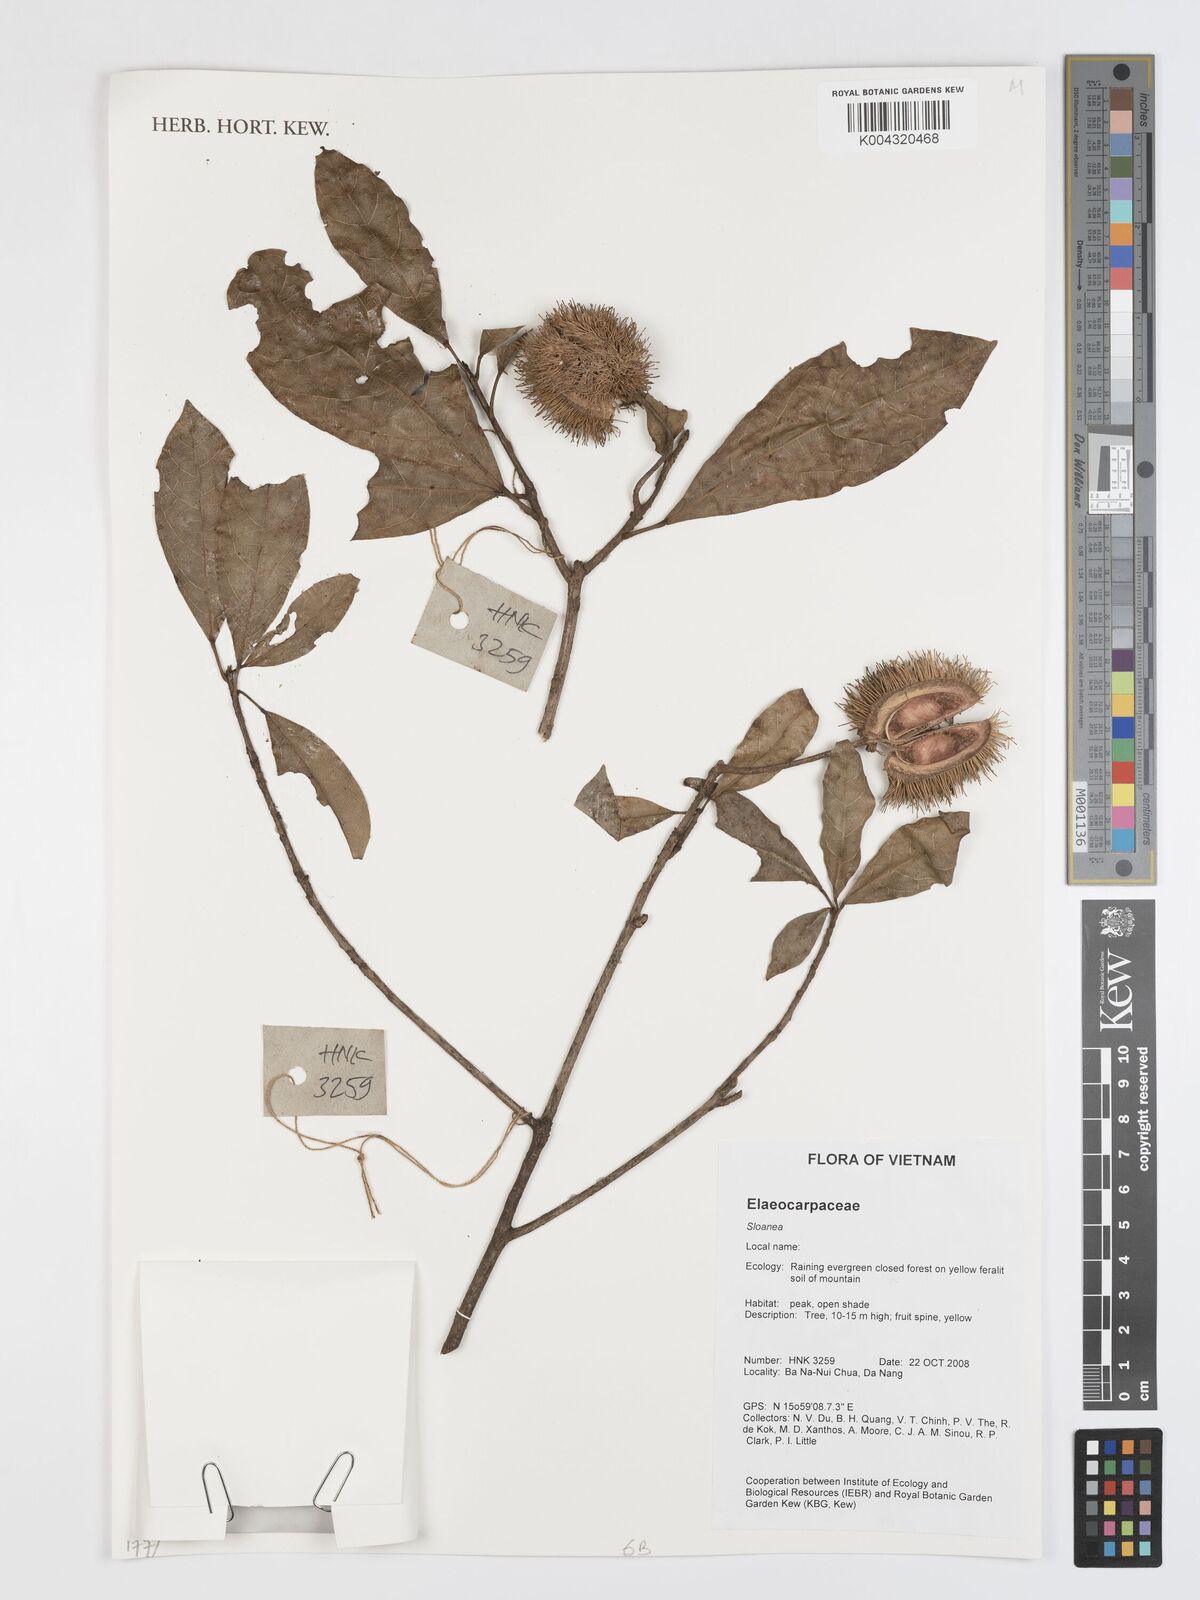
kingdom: Plantae
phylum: Tracheophyta
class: Magnoliopsida
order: Oxalidales
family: Elaeocarpaceae
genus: Sloanea
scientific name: Sloanea
